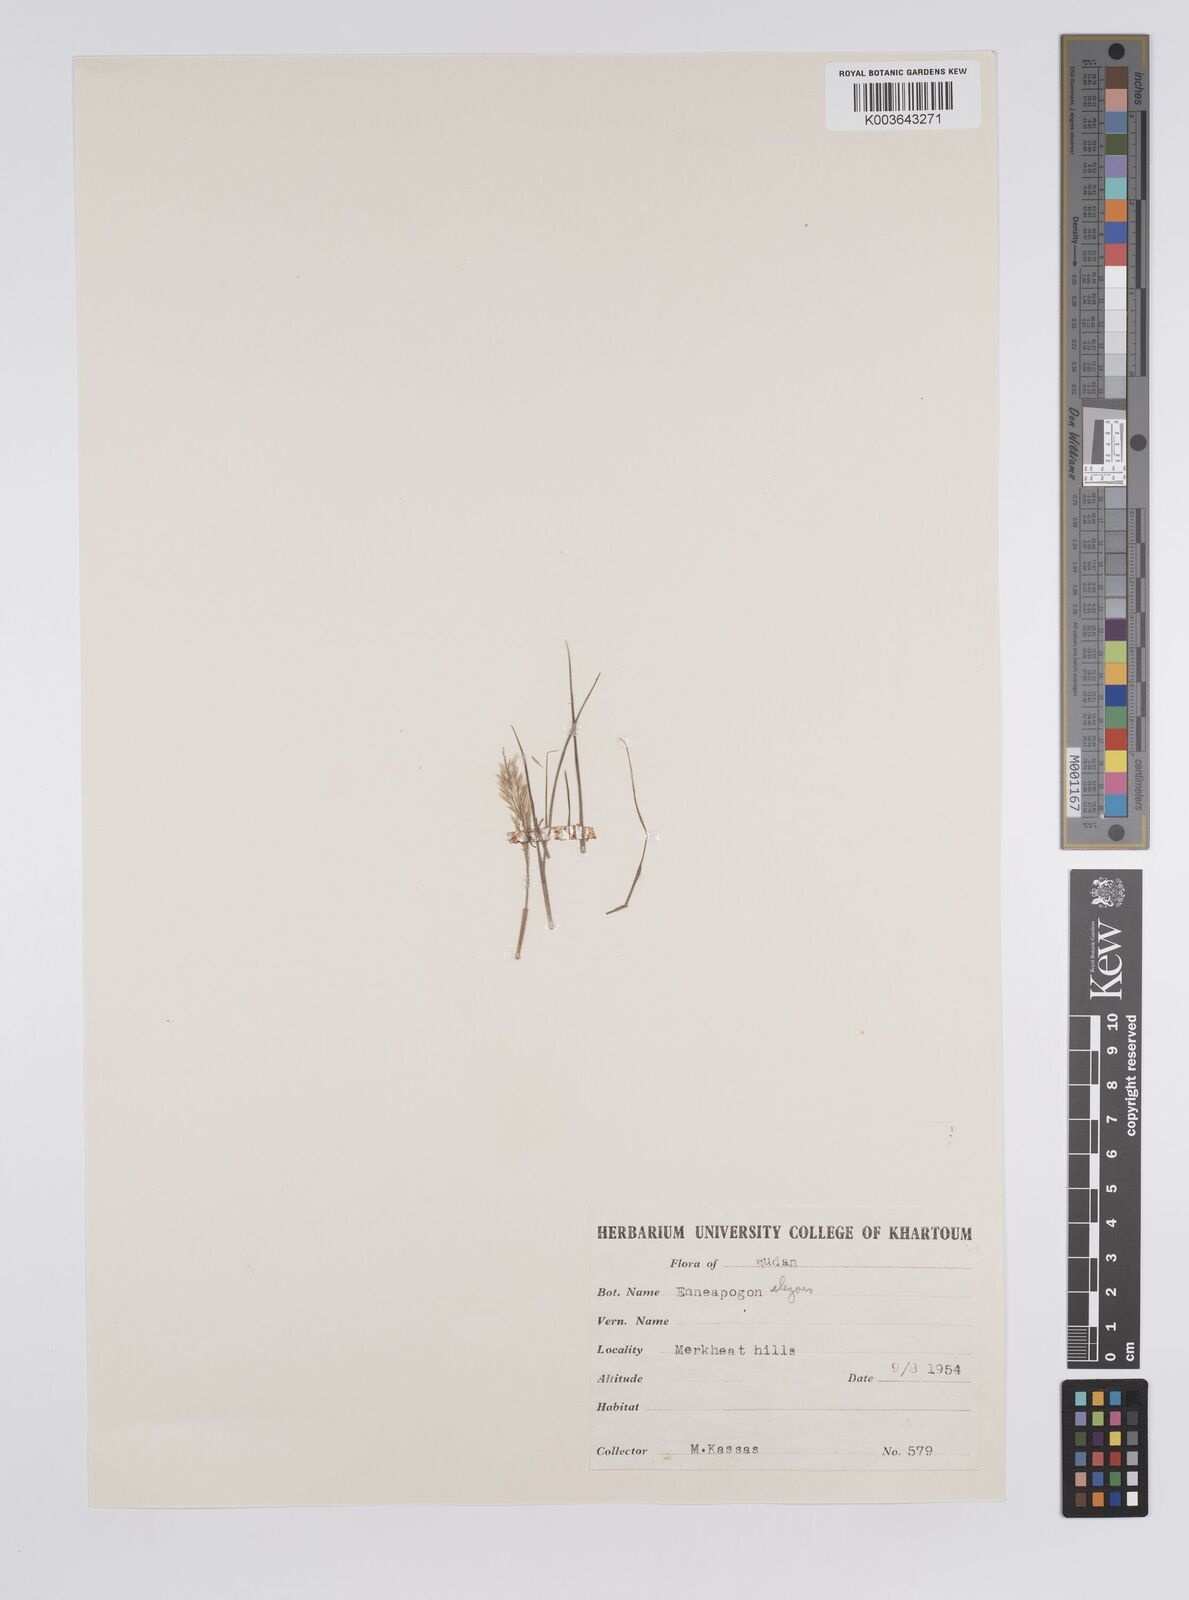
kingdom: Plantae
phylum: Tracheophyta
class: Liliopsida
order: Poales
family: Poaceae
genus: Enneapogon
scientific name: Enneapogon persicus
